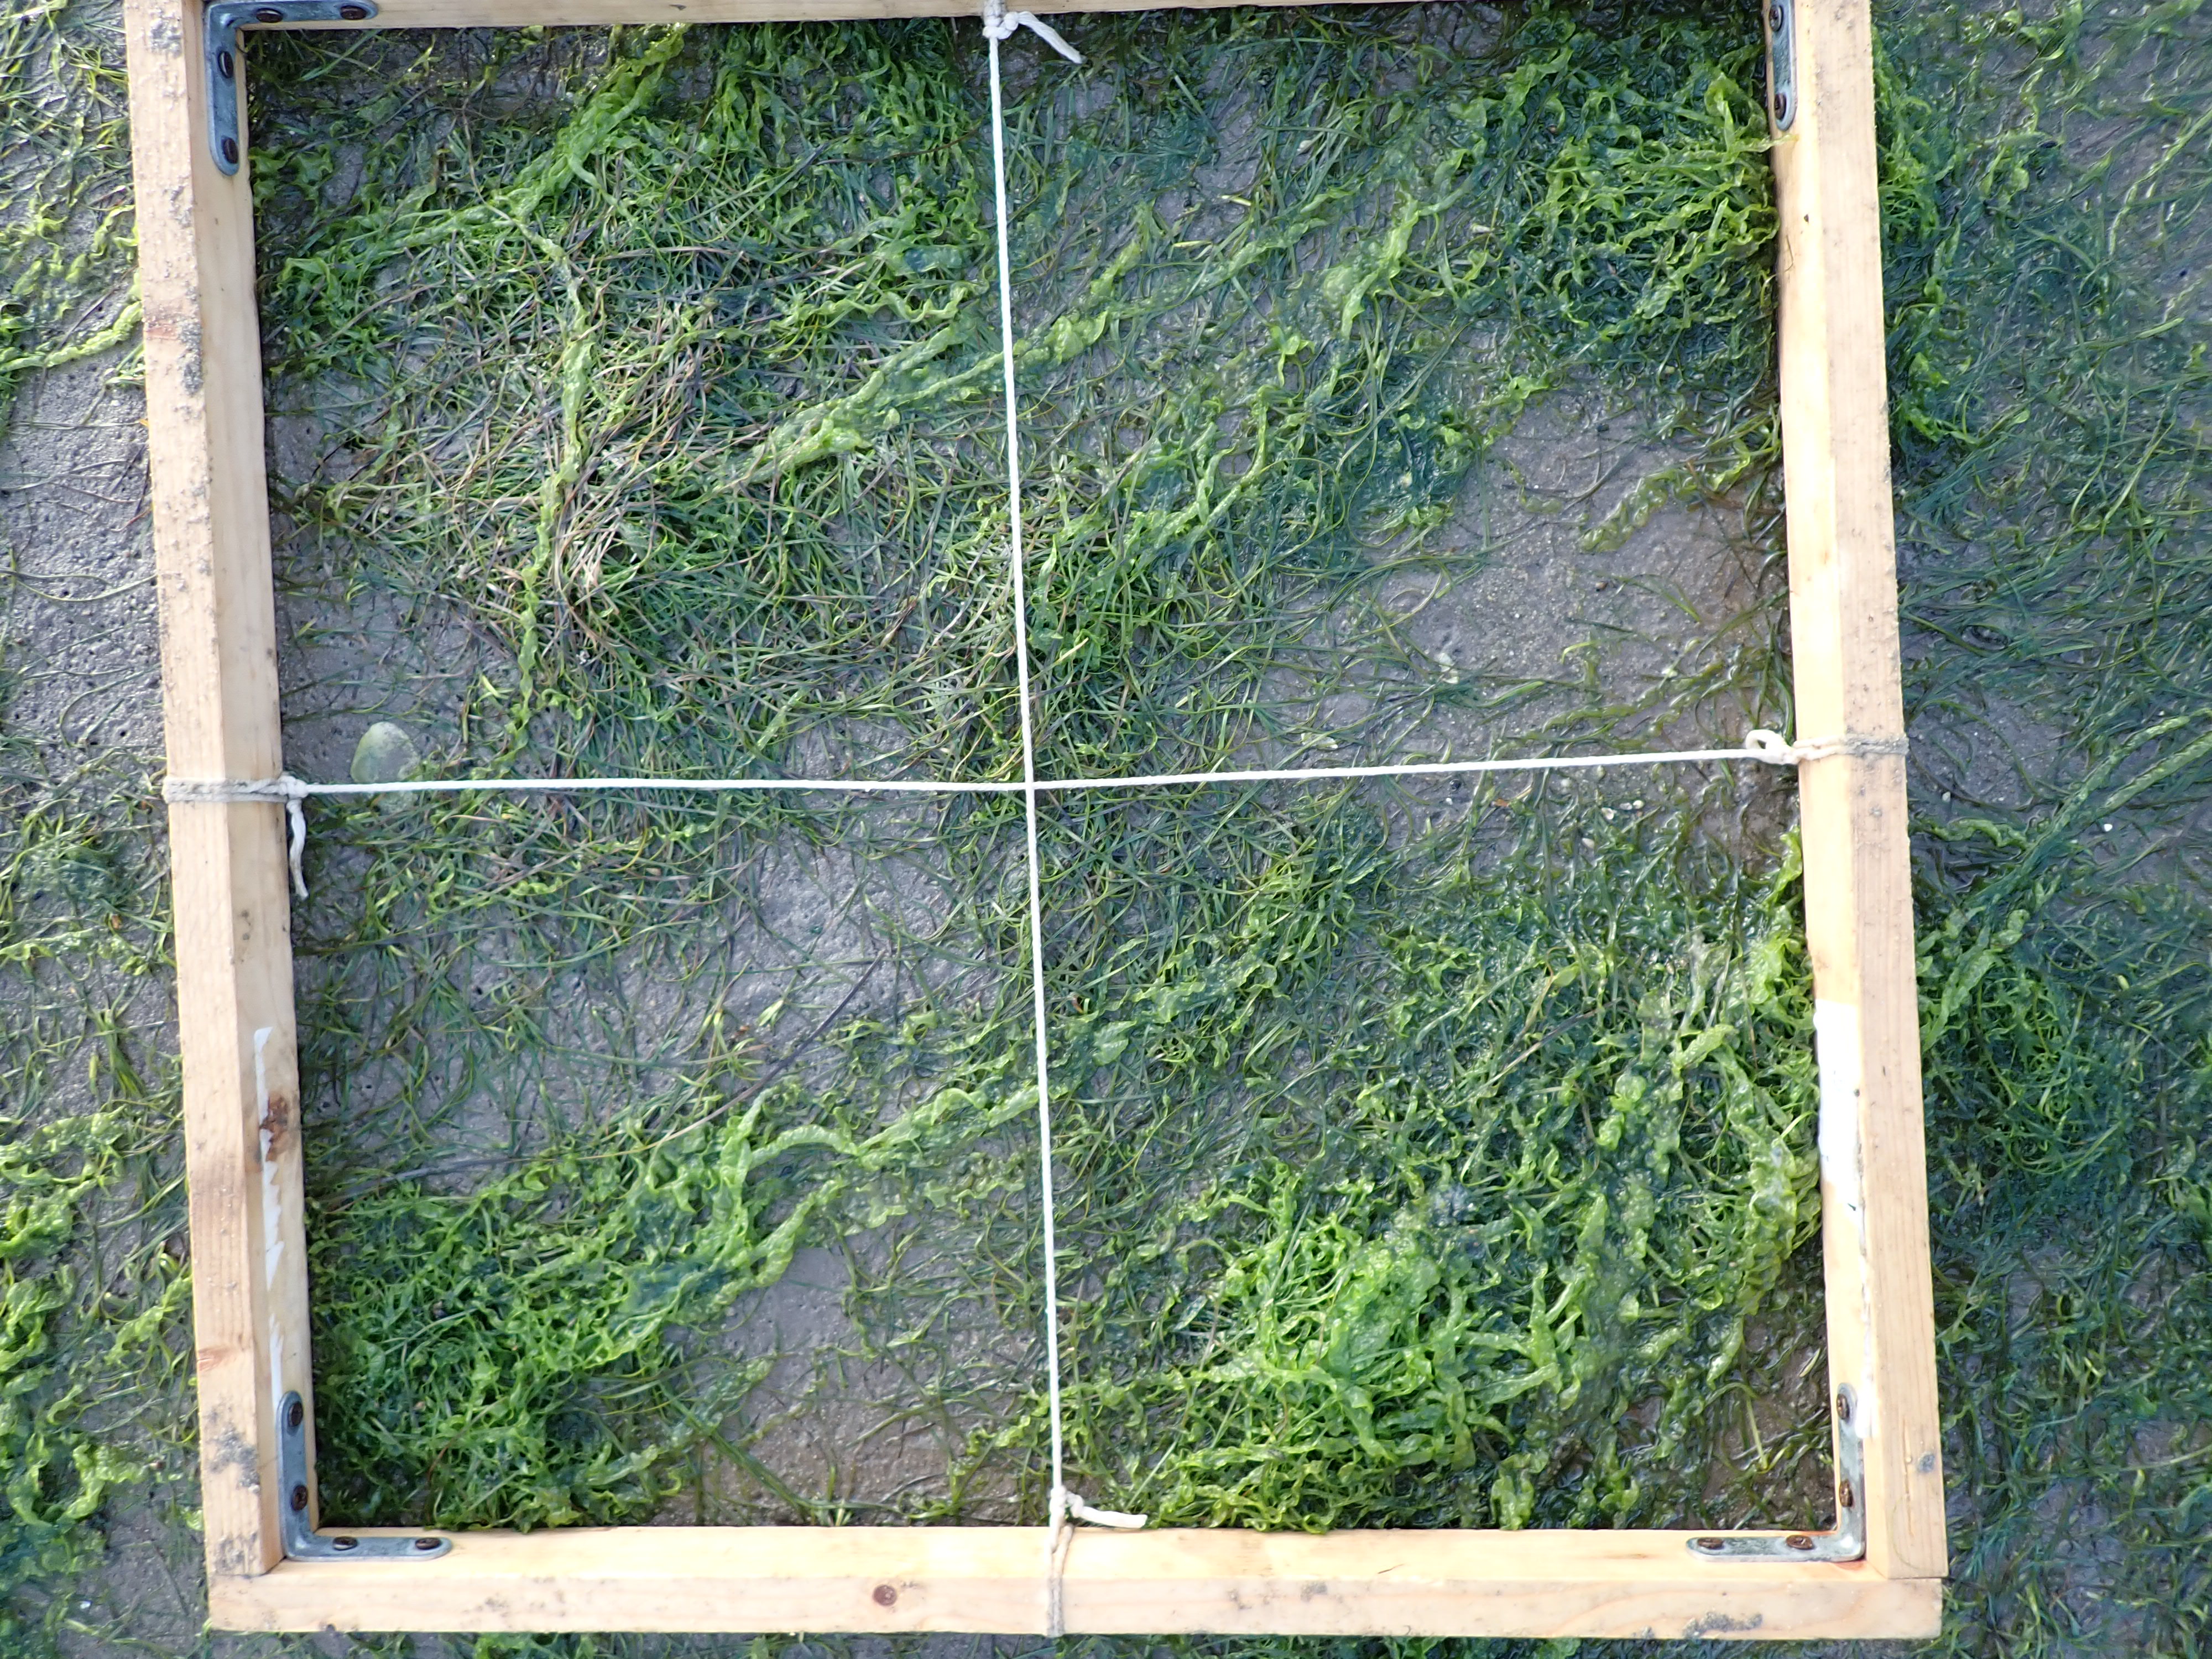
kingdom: Plantae
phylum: Chlorophyta
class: Ulvophyceae
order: Ulvales
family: Ulvaceae
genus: Ulva
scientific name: Ulva
